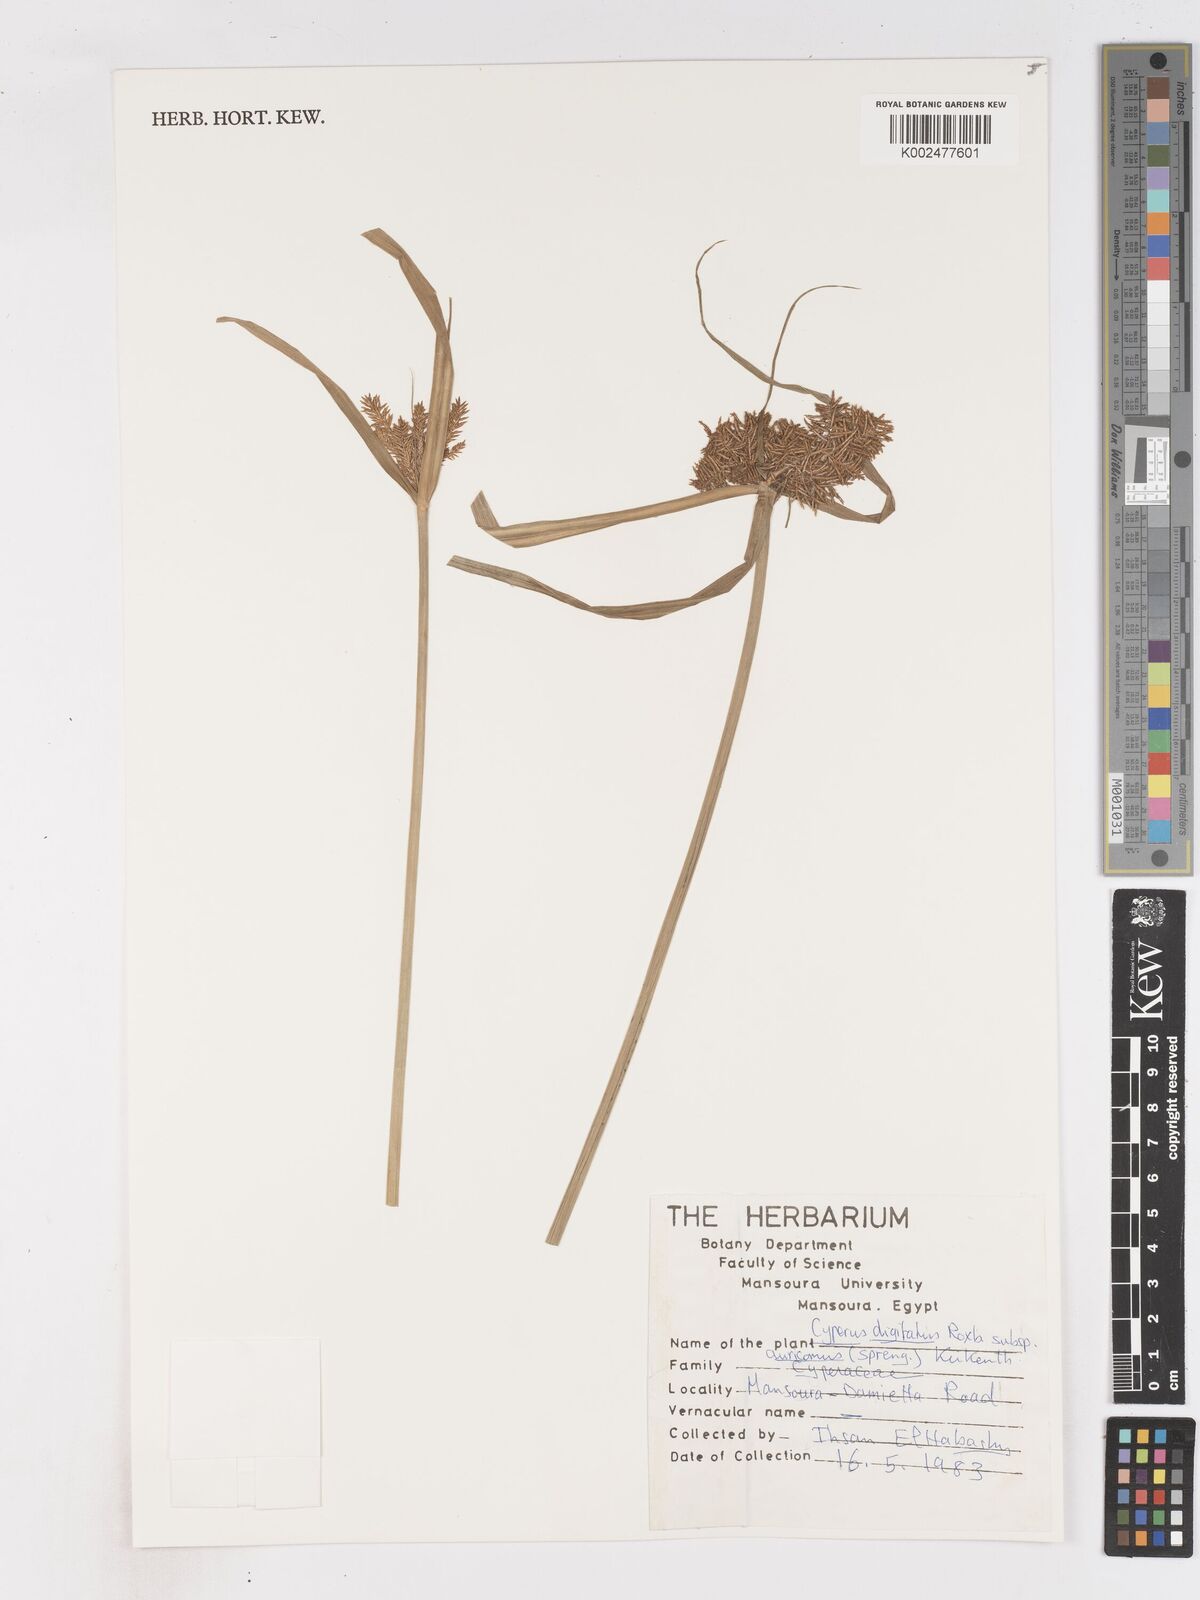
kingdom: Plantae
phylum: Tracheophyta
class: Liliopsida
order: Poales
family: Cyperaceae
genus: Cyperus
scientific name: Cyperus digitatus
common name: Finger flatsedge
